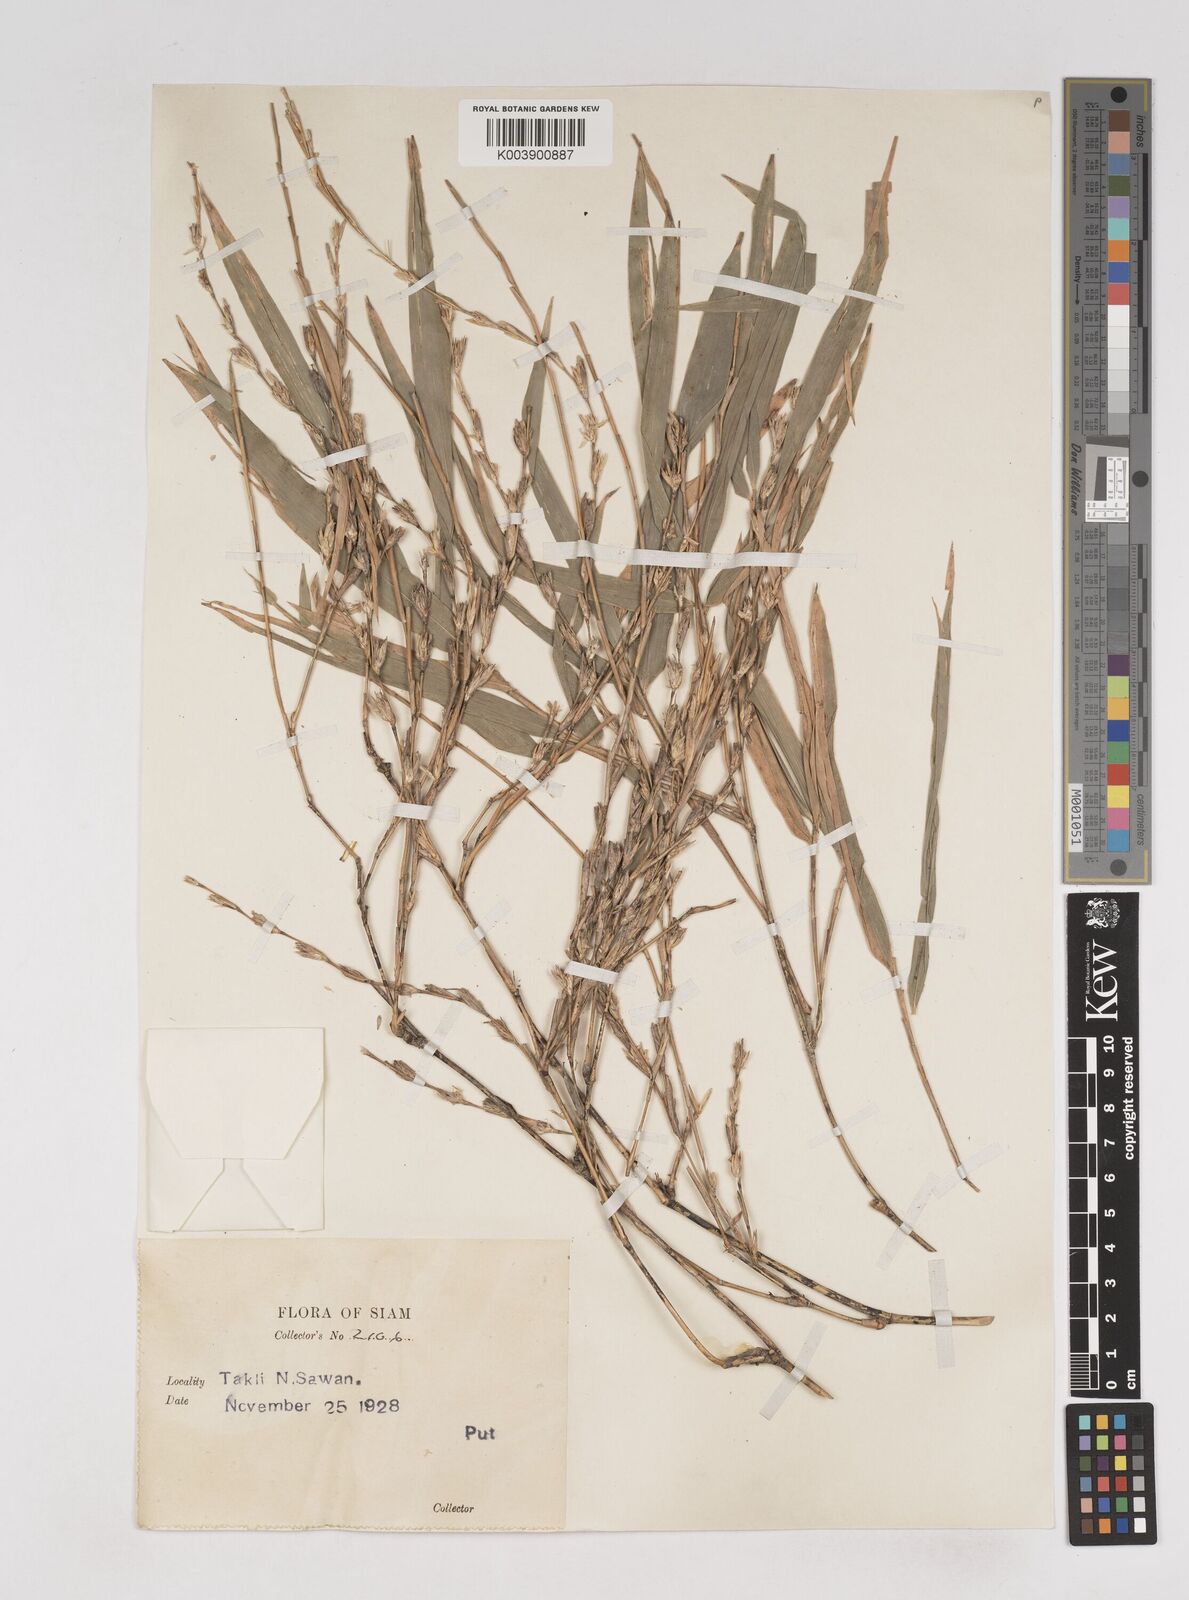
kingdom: Plantae
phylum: Tracheophyta
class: Liliopsida
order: Poales
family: Poaceae
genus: Thyrsostachys
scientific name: Thyrsostachys siamensis
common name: Thailand bamboo
